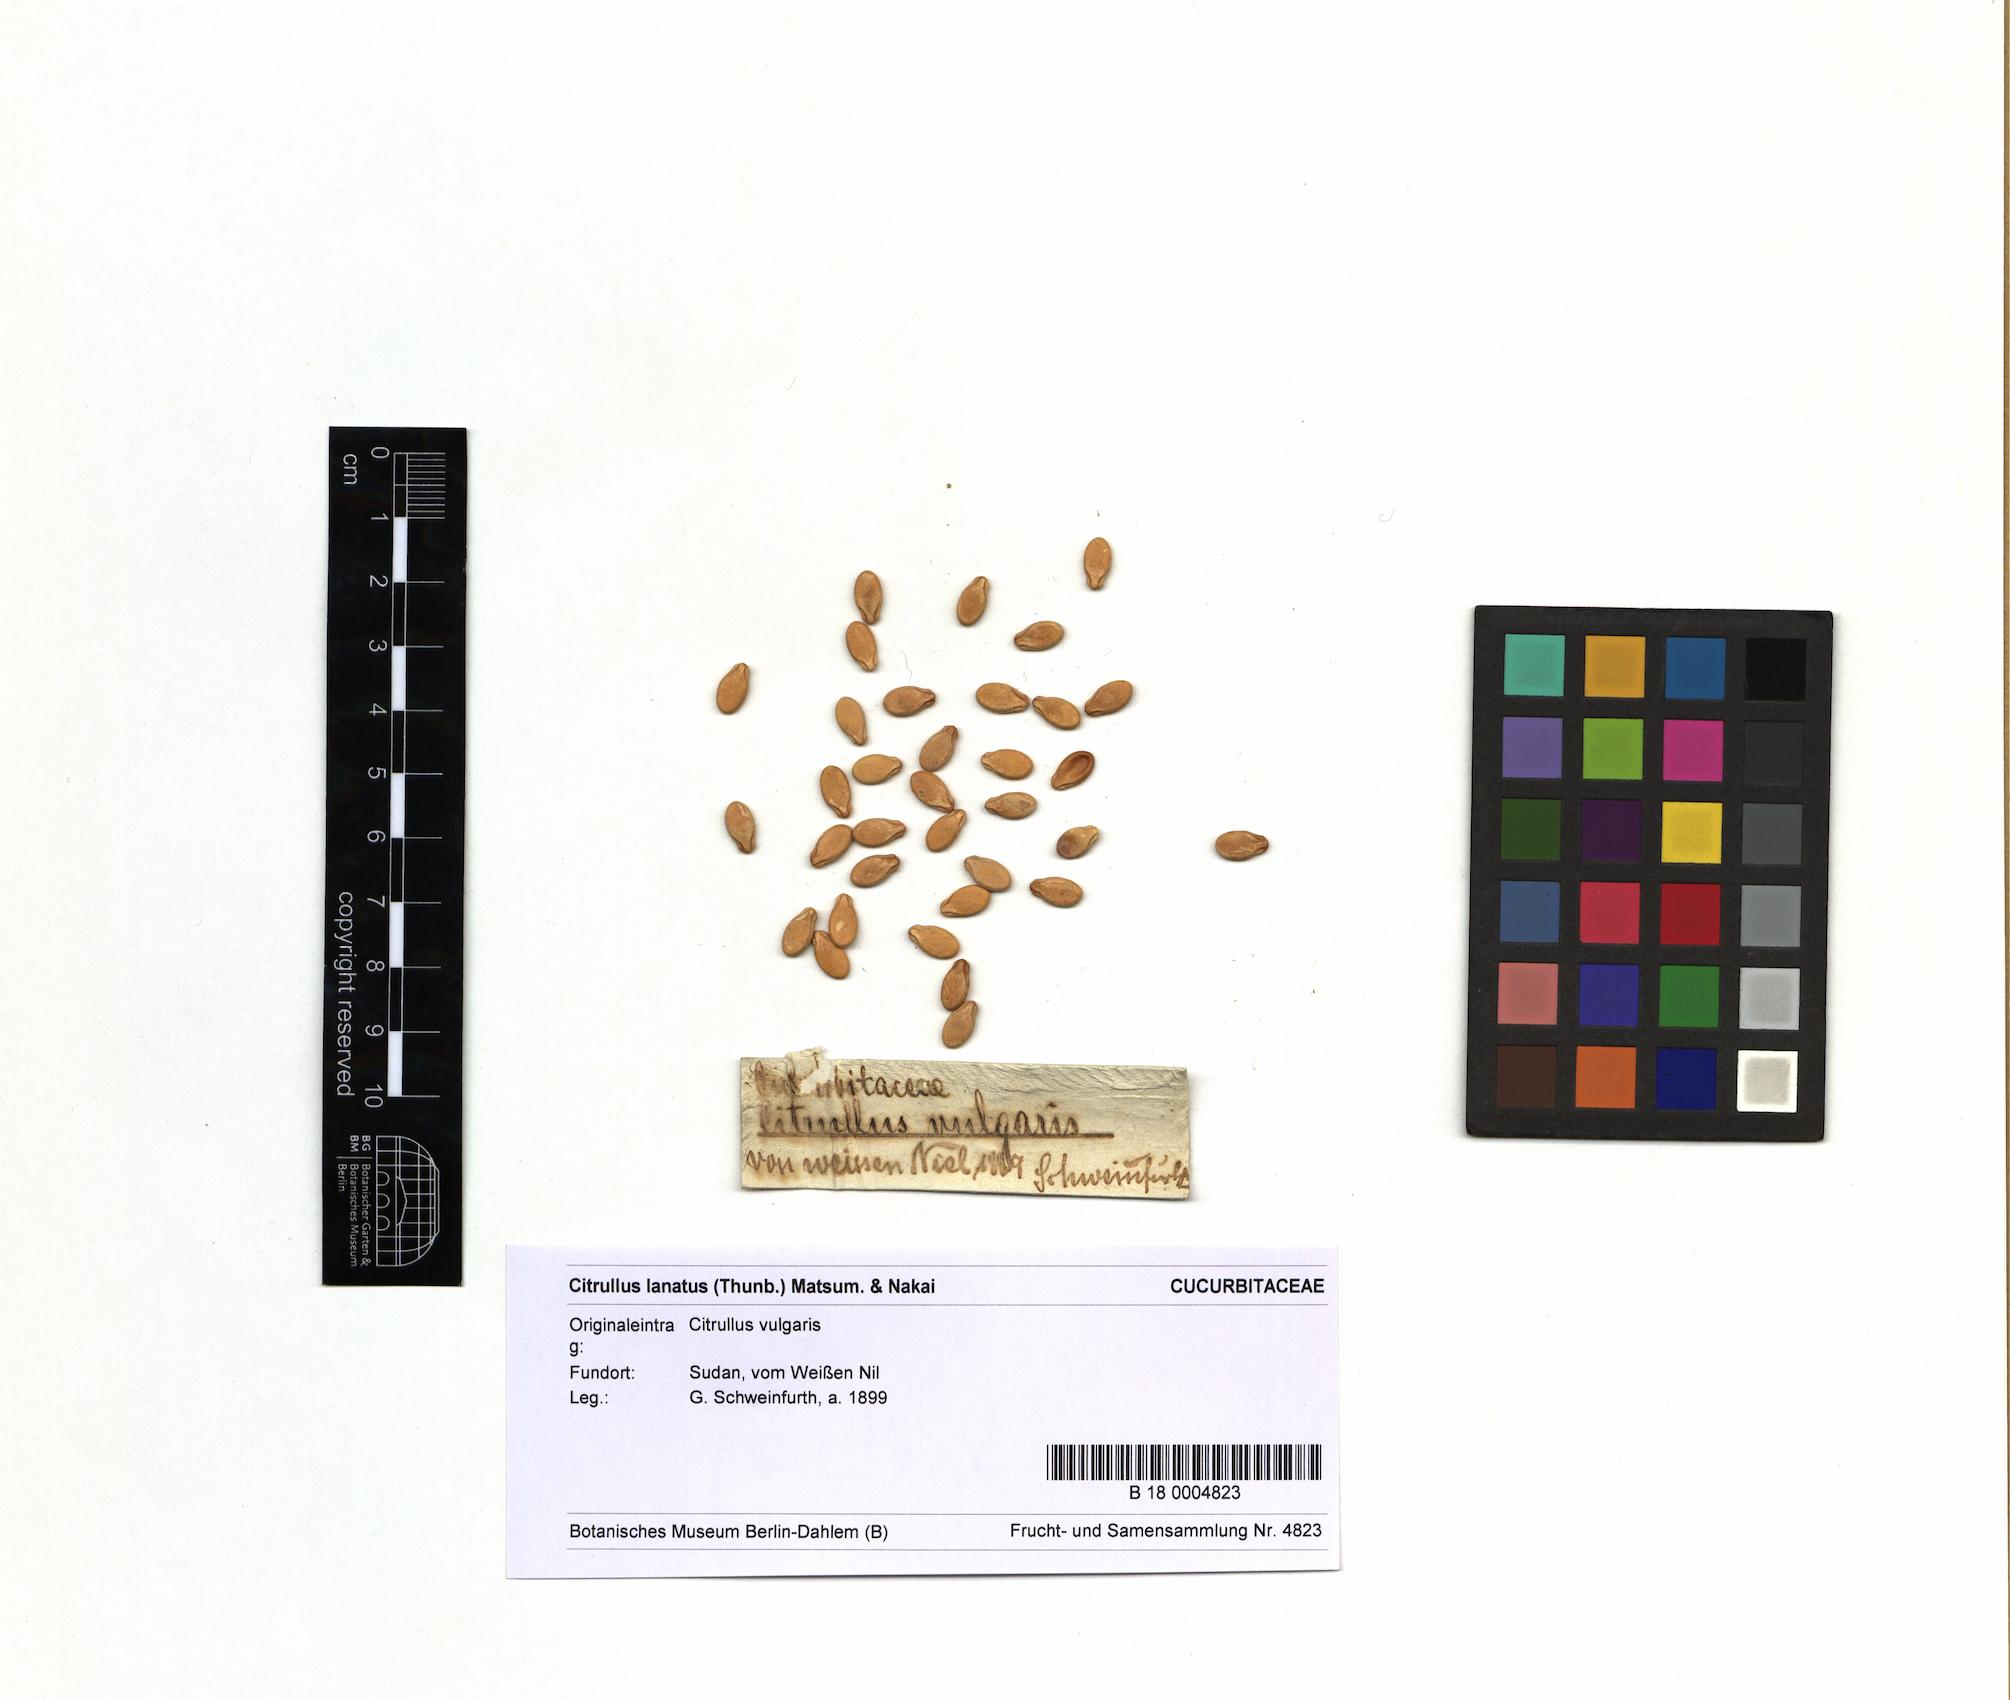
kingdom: Plantae
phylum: Tracheophyta
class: Magnoliopsida
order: Cucurbitales
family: Cucurbitaceae
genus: Citrullus
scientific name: Citrullus lanatus
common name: Watermelon
